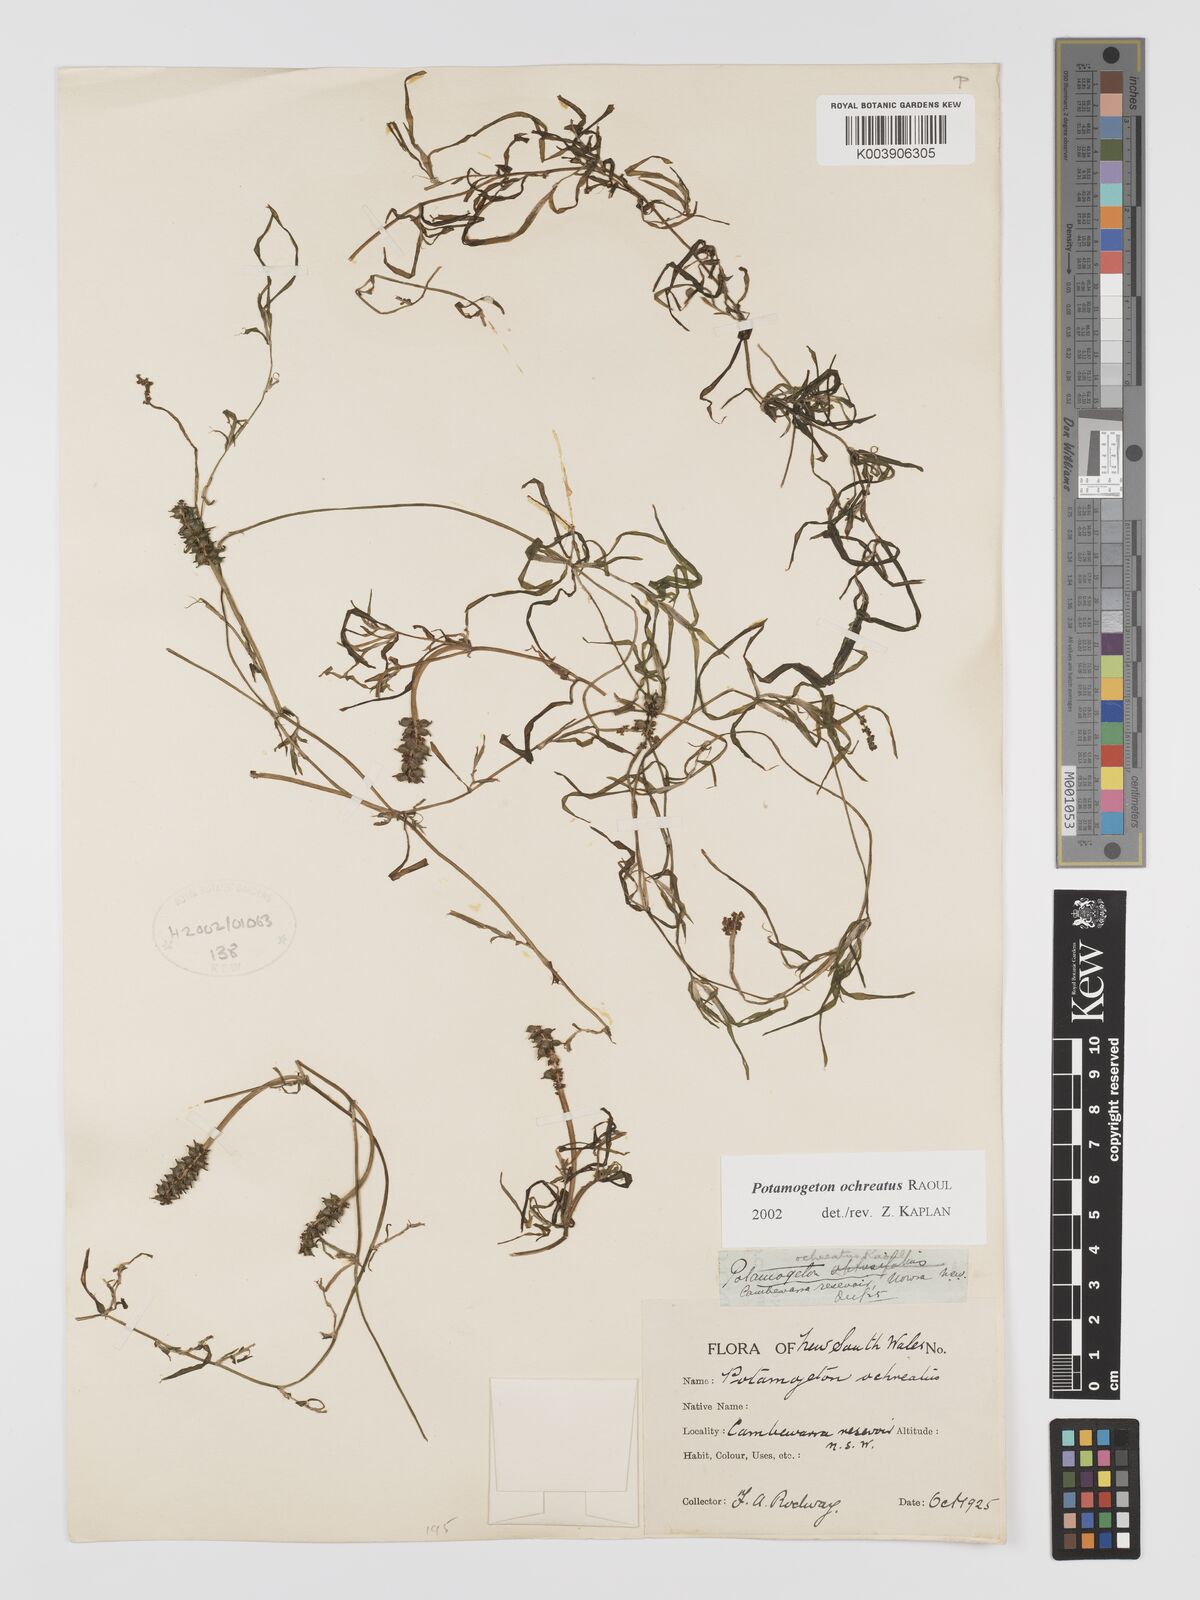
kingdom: Plantae
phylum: Tracheophyta
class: Liliopsida
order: Alismatales
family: Potamogetonaceae
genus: Potamogeton
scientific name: Potamogeton ochreatus
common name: Blunt pondweed
